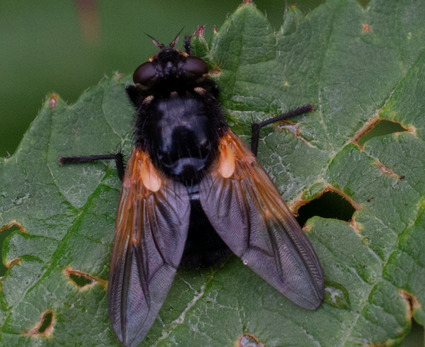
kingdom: Animalia
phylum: Arthropoda
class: Insecta
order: Diptera
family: Muscidae
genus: Mesembrina
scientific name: Mesembrina meridiana
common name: Gulvinget flue
